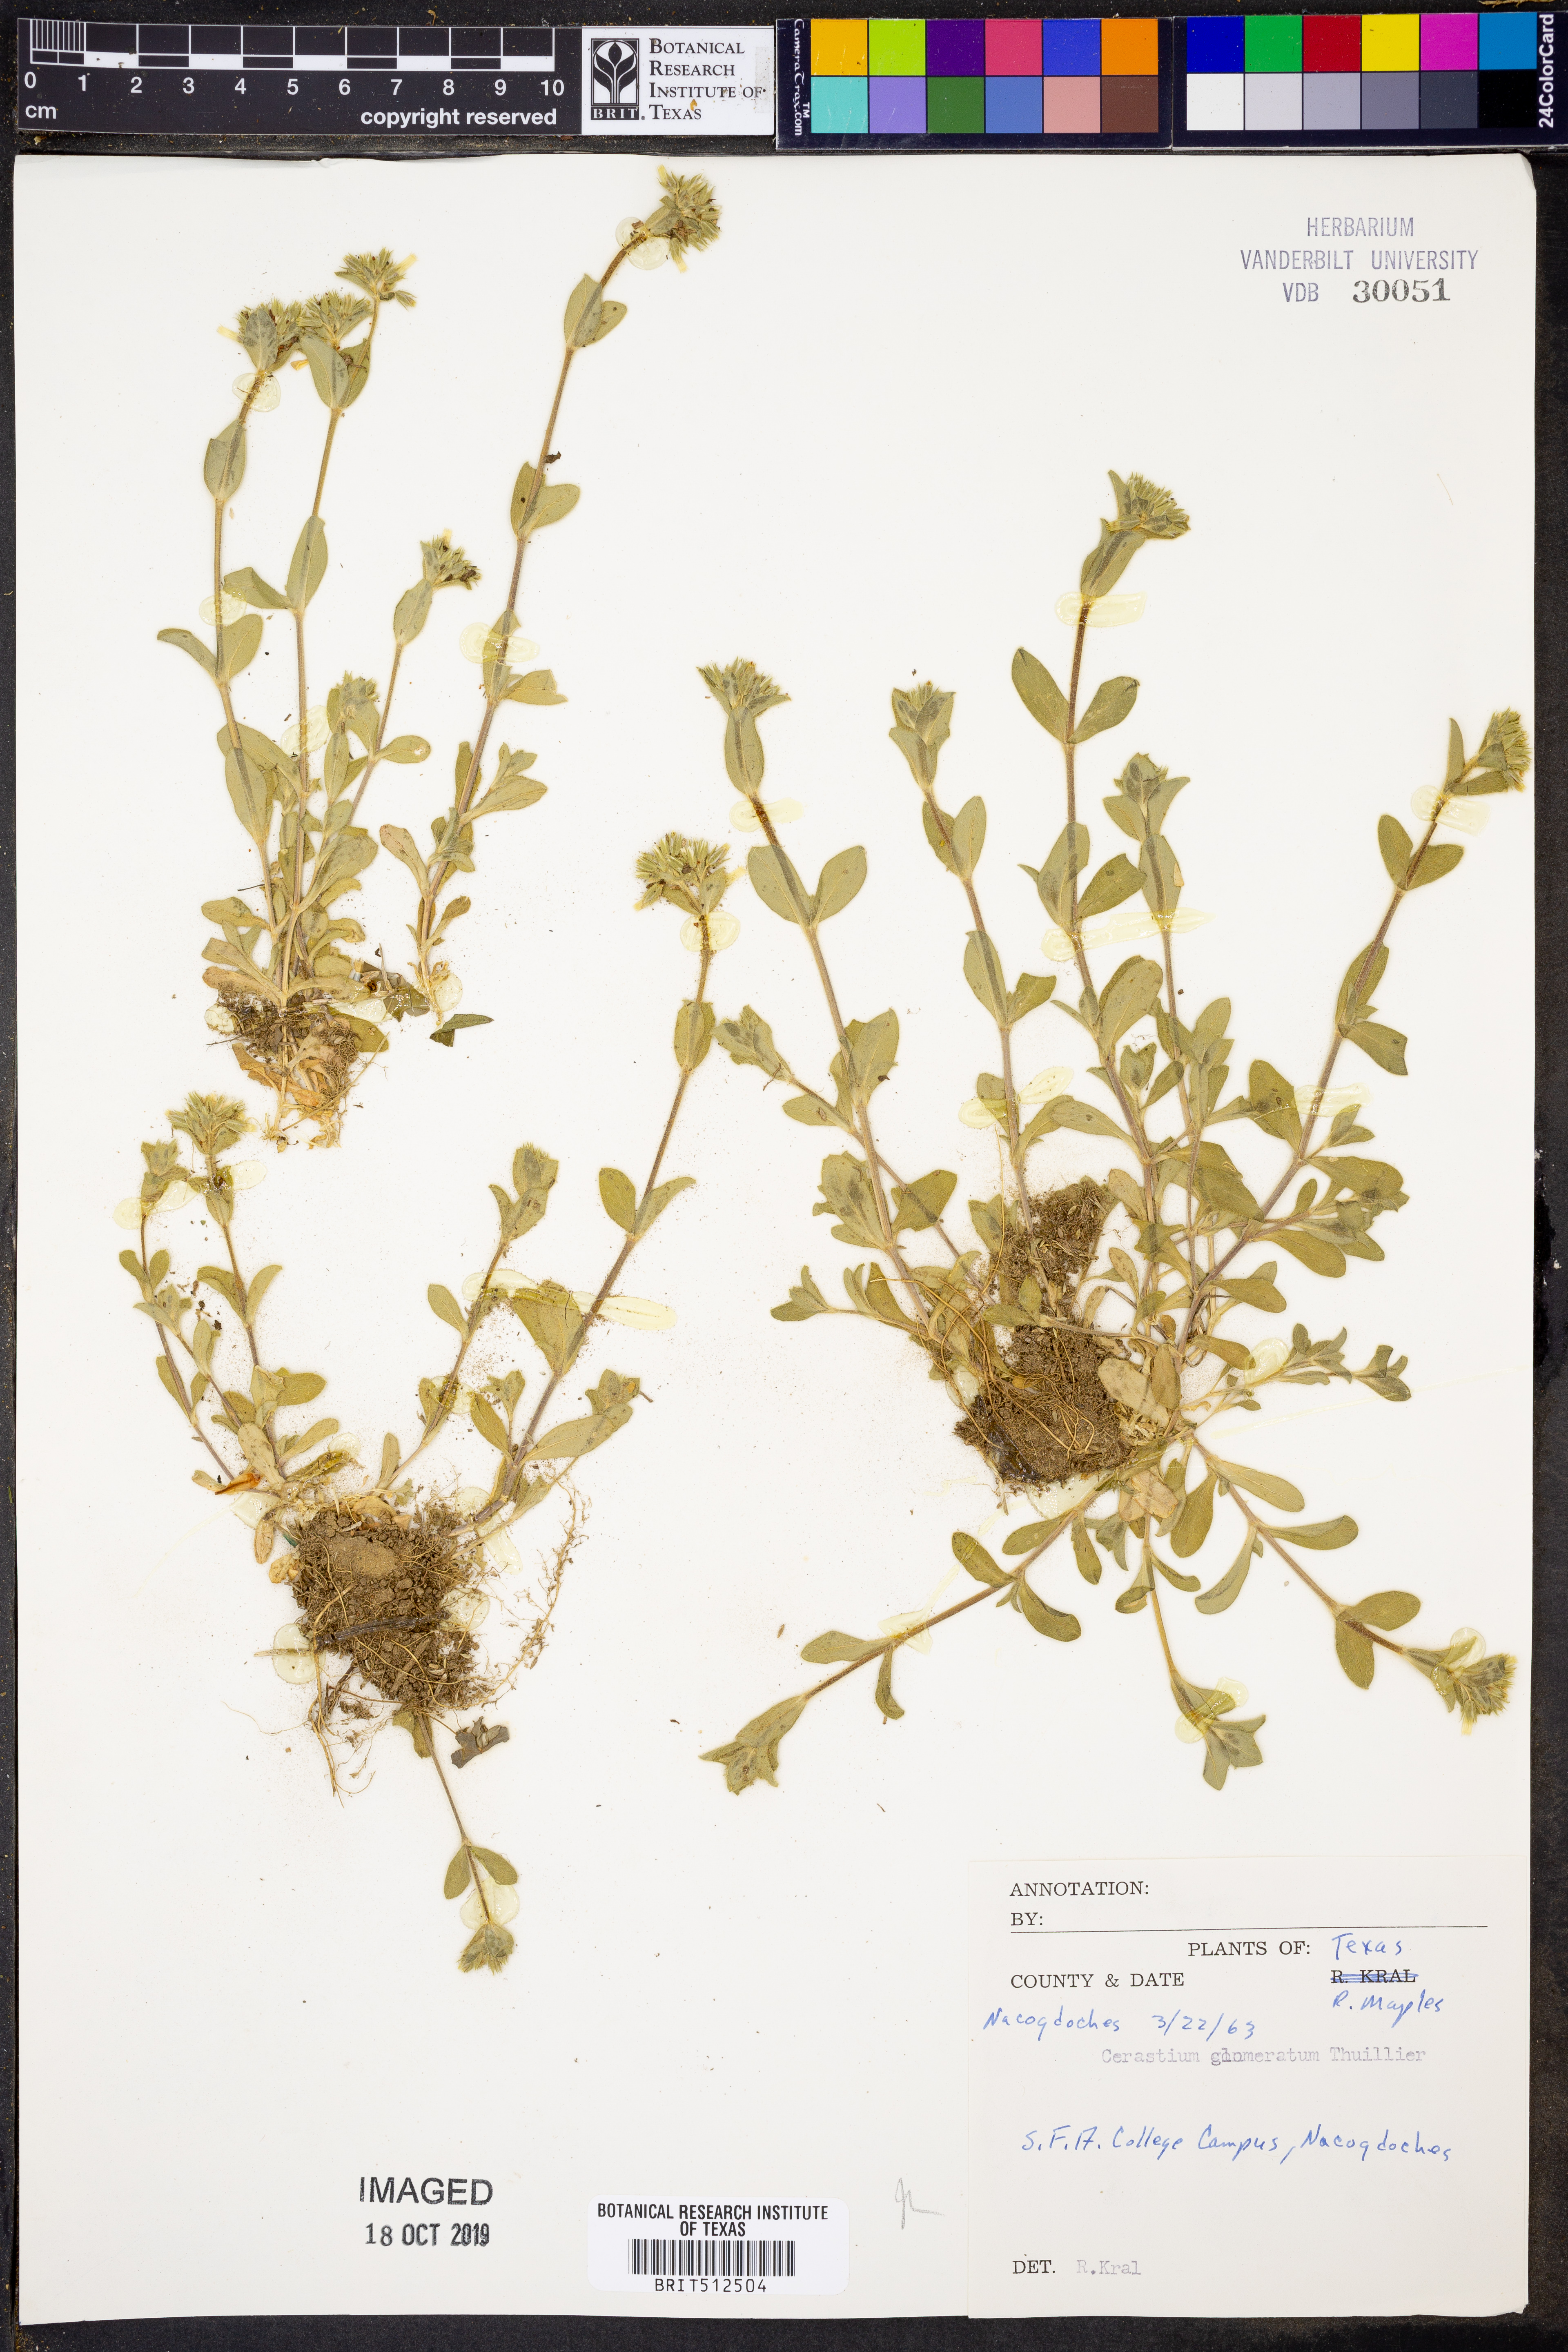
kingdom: Plantae
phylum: Tracheophyta
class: Magnoliopsida
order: Caryophyllales
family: Caryophyllaceae
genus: Cerastium
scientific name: Cerastium glomeratum
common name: Sticky chickweed
